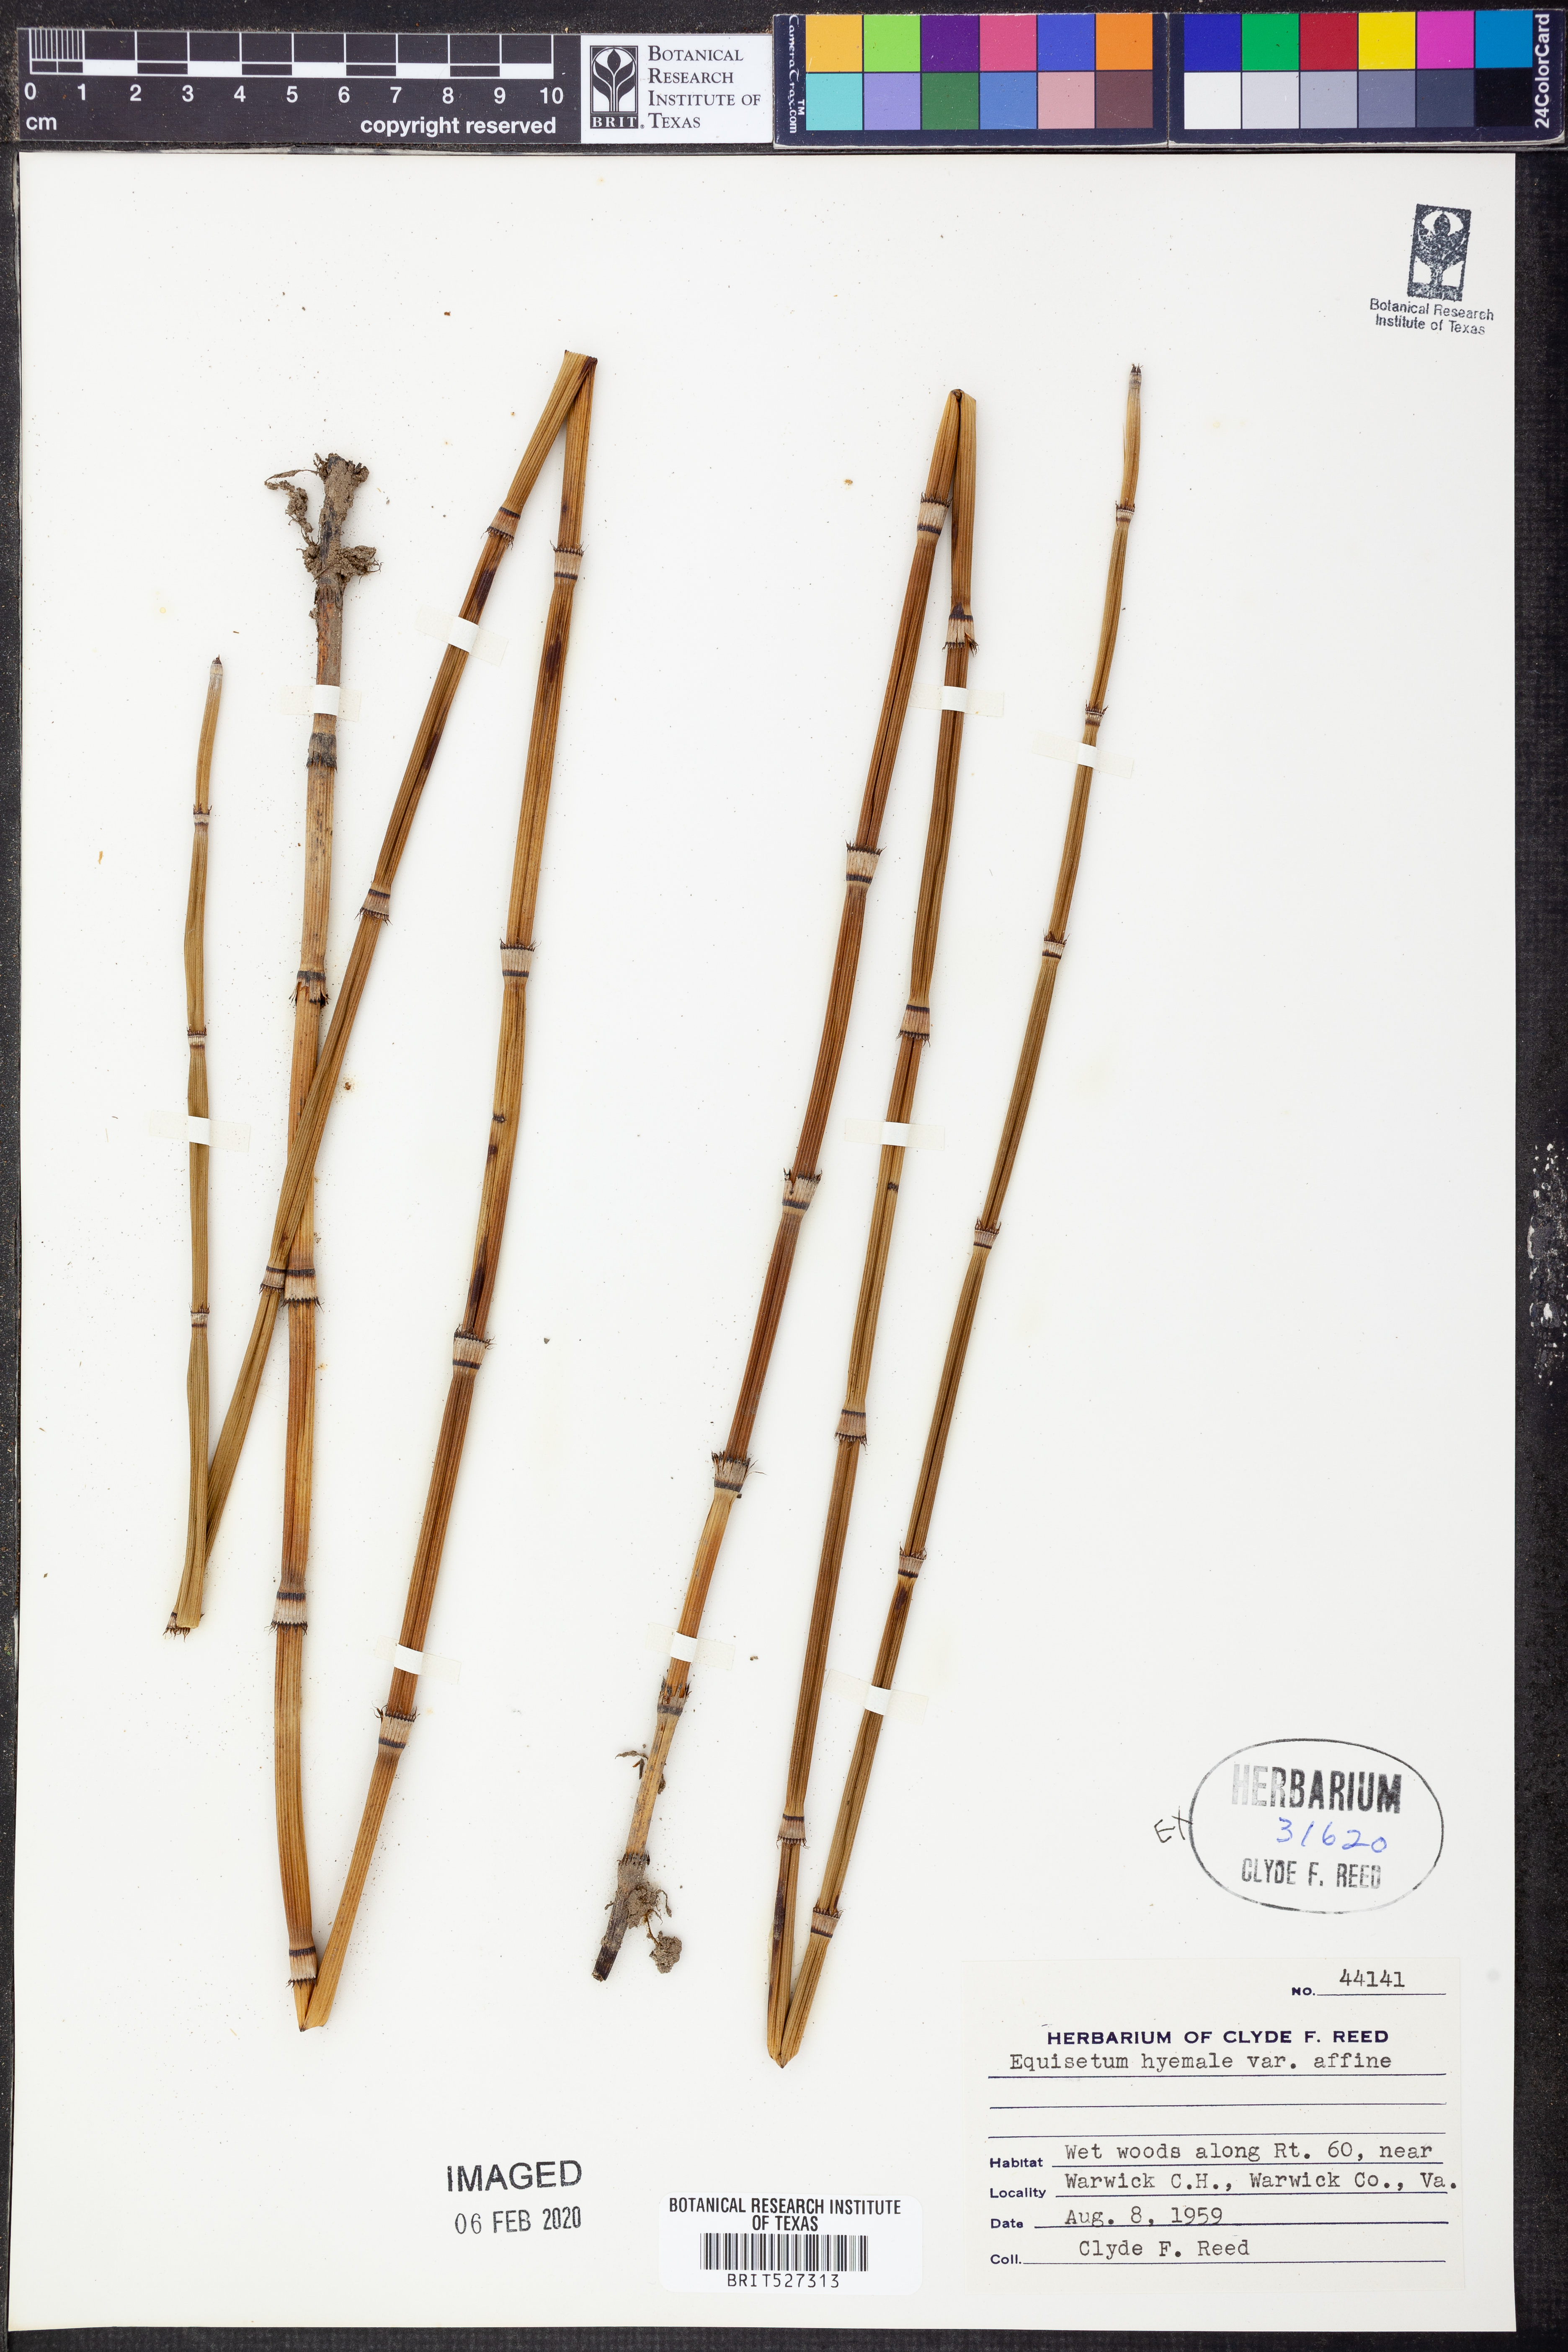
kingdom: Plantae
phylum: Tracheophyta
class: Polypodiopsida
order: Equisetales
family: Equisetaceae
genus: Equisetum
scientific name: Equisetum praealtum
